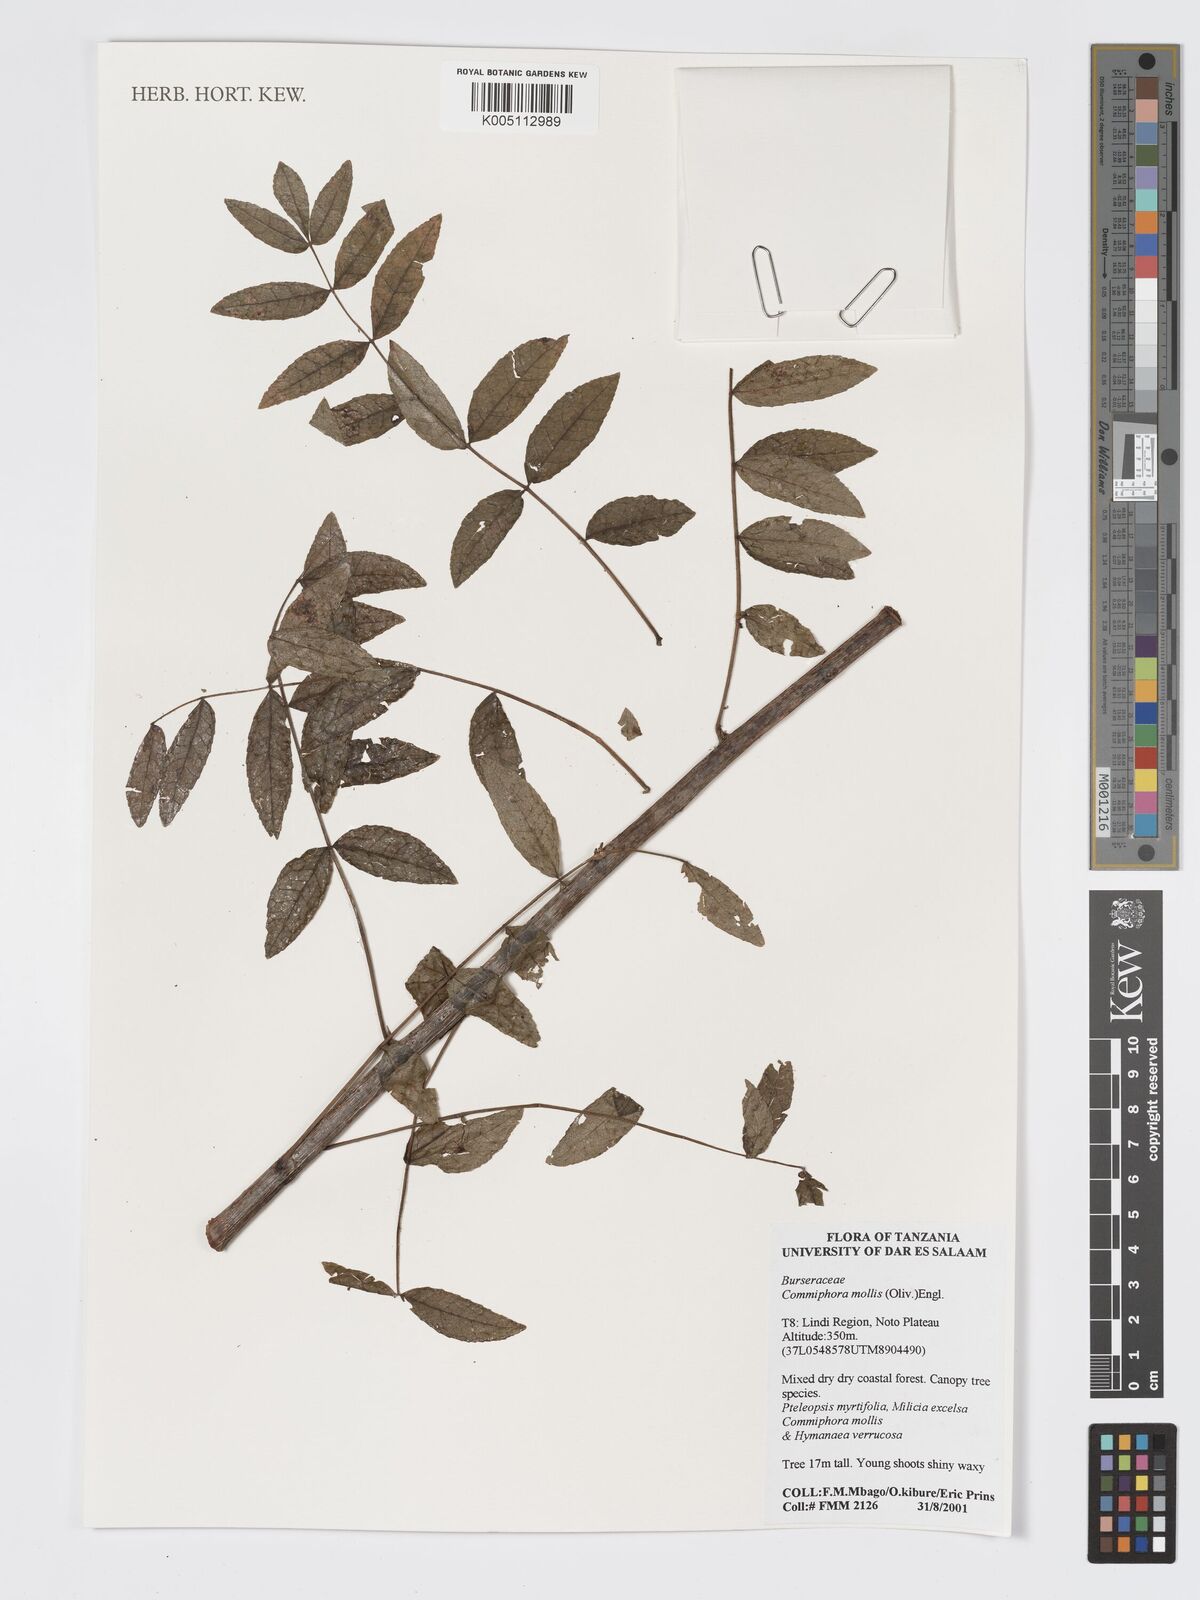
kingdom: Plantae
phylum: Tracheophyta
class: Magnoliopsida
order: Sapindales
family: Burseraceae
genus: Commiphora
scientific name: Commiphora
